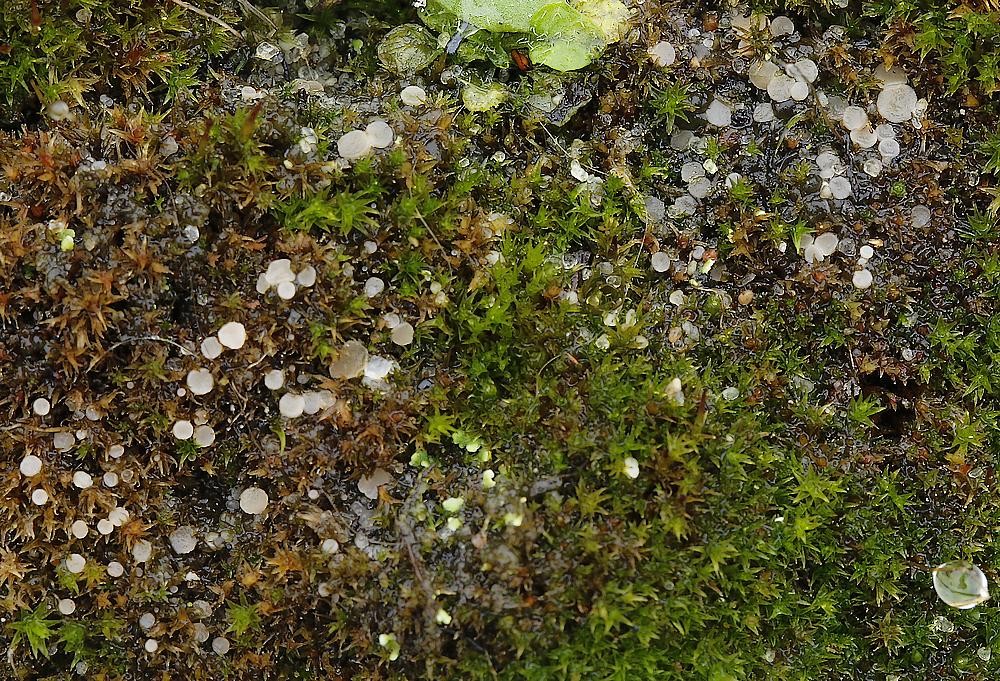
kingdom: Fungi
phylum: Ascomycota
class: Leotiomycetes
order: Helotiales
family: Helotiaceae
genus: Bryoscyphus
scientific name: Bryoscyphus dicrani
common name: bladmos-stilkskive
